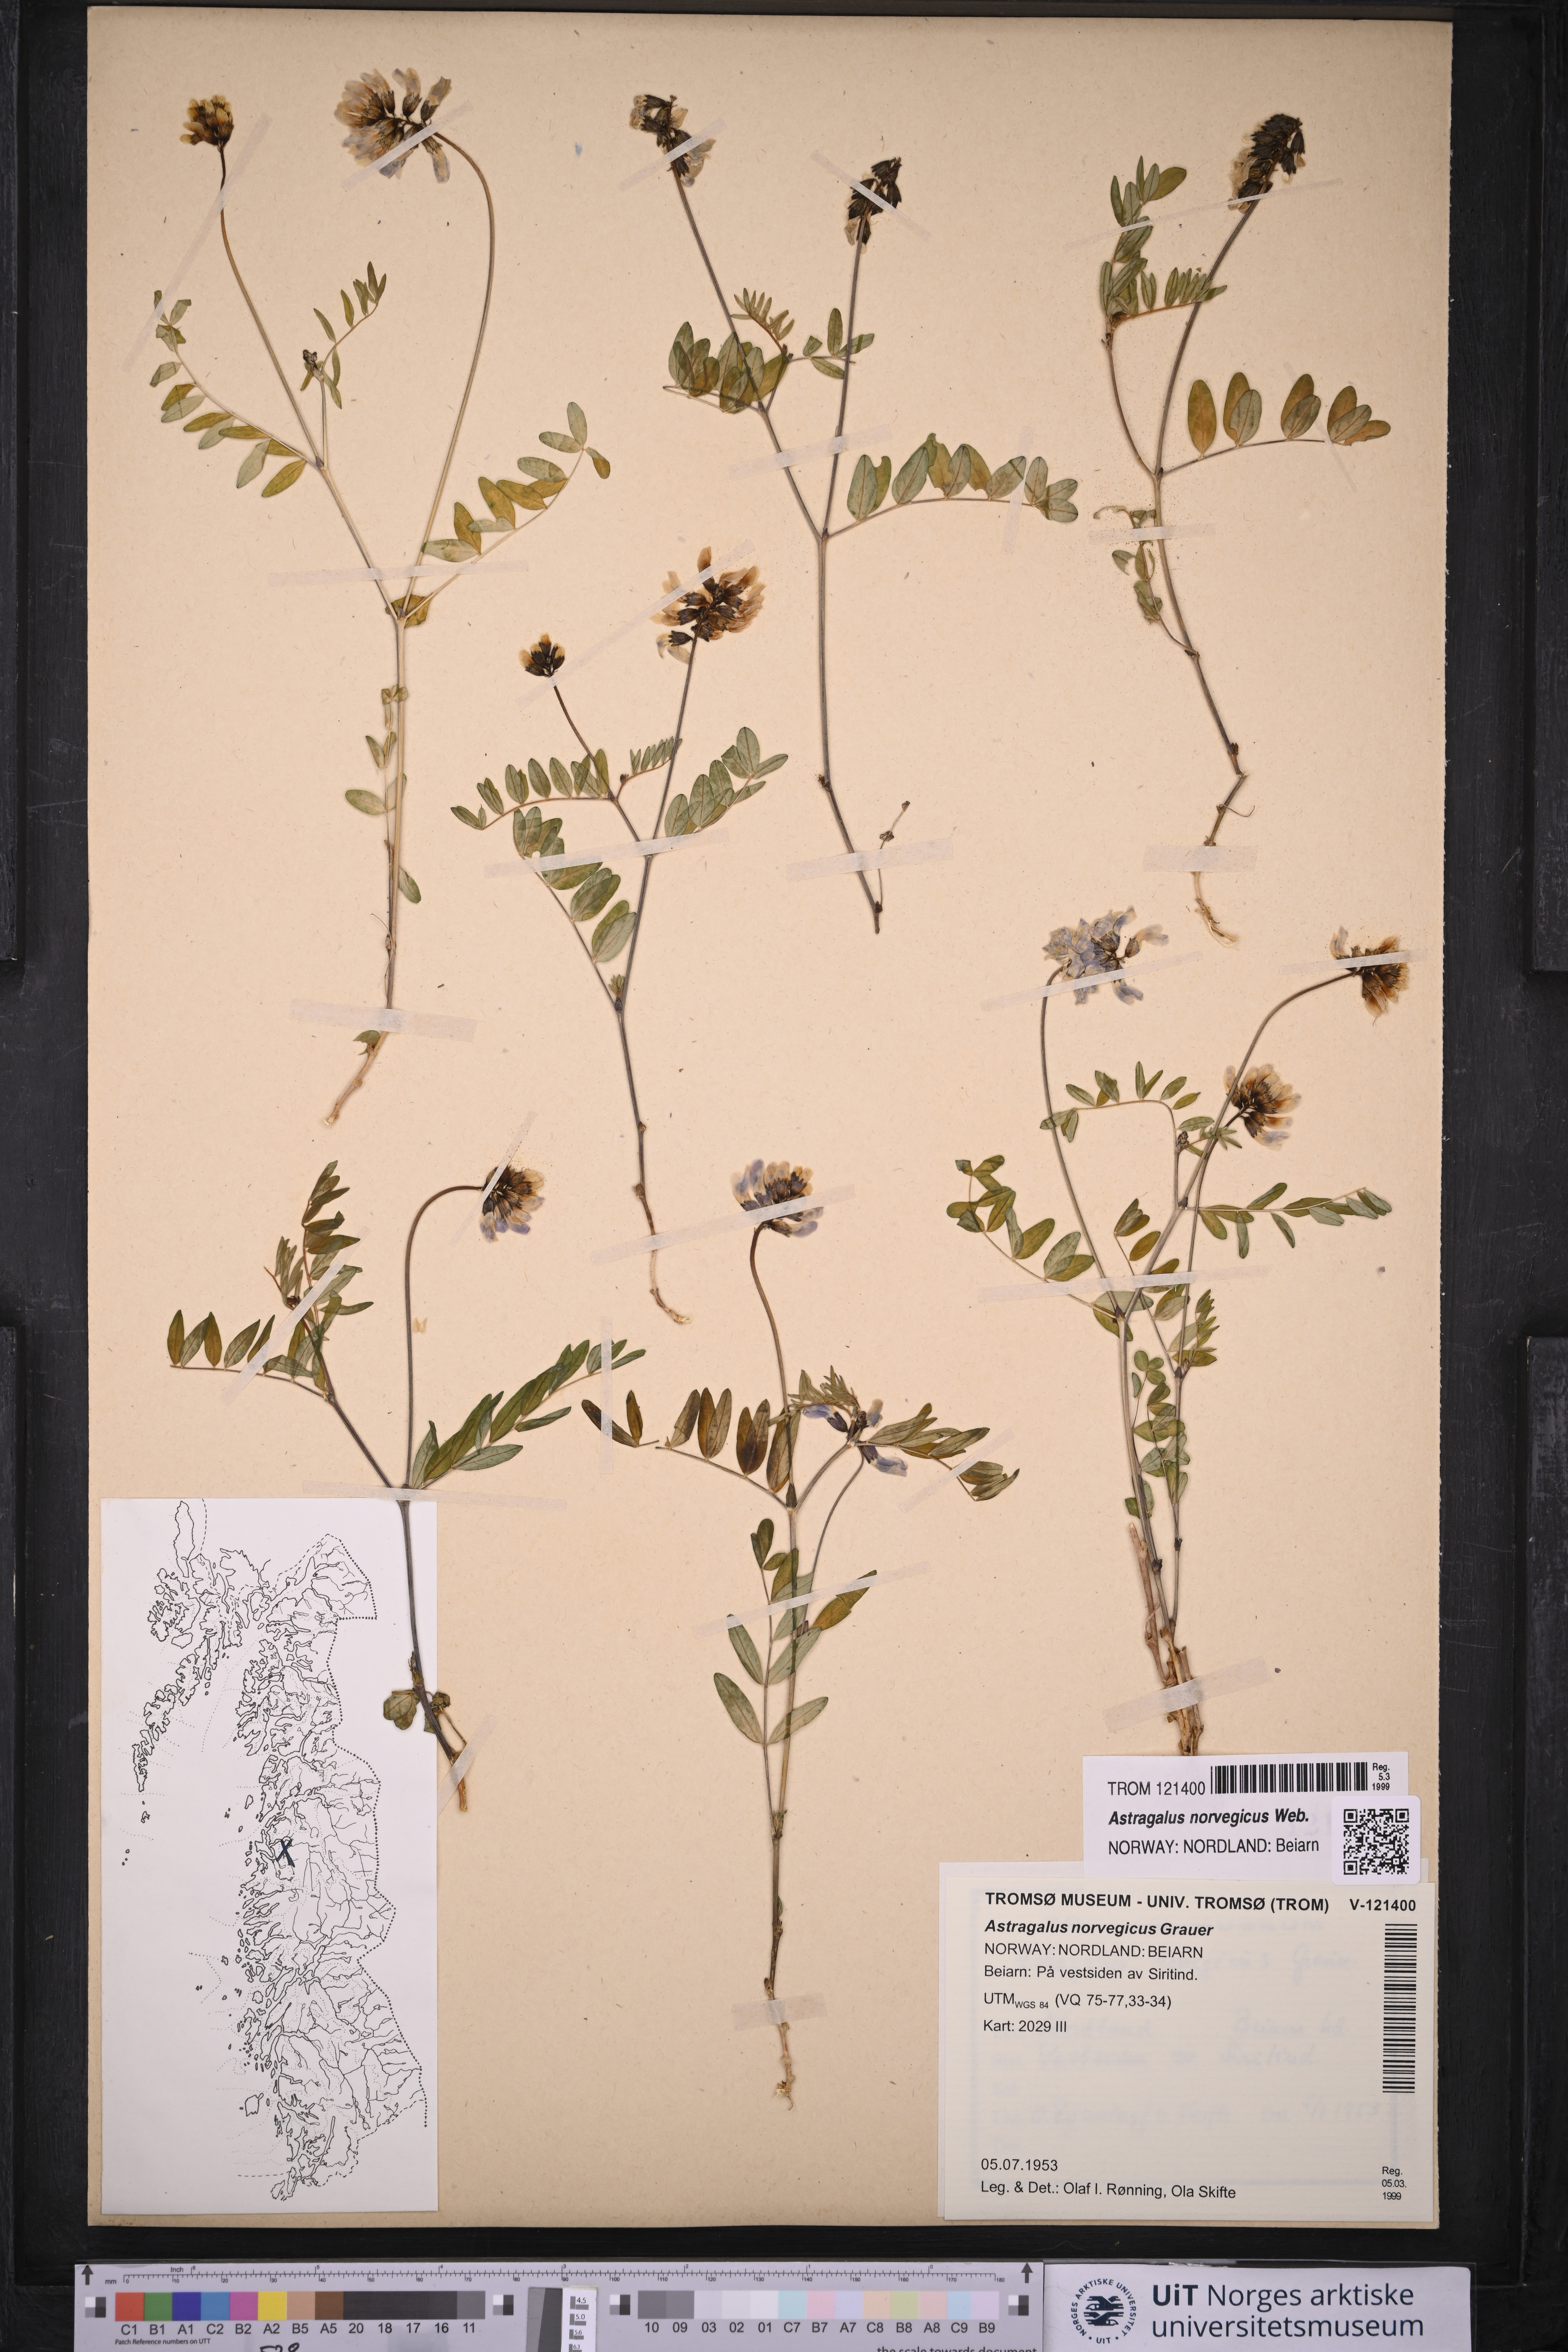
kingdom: Plantae
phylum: Tracheophyta
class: Magnoliopsida
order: Fabales
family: Fabaceae
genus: Astragalus
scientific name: Astragalus norvegicus
